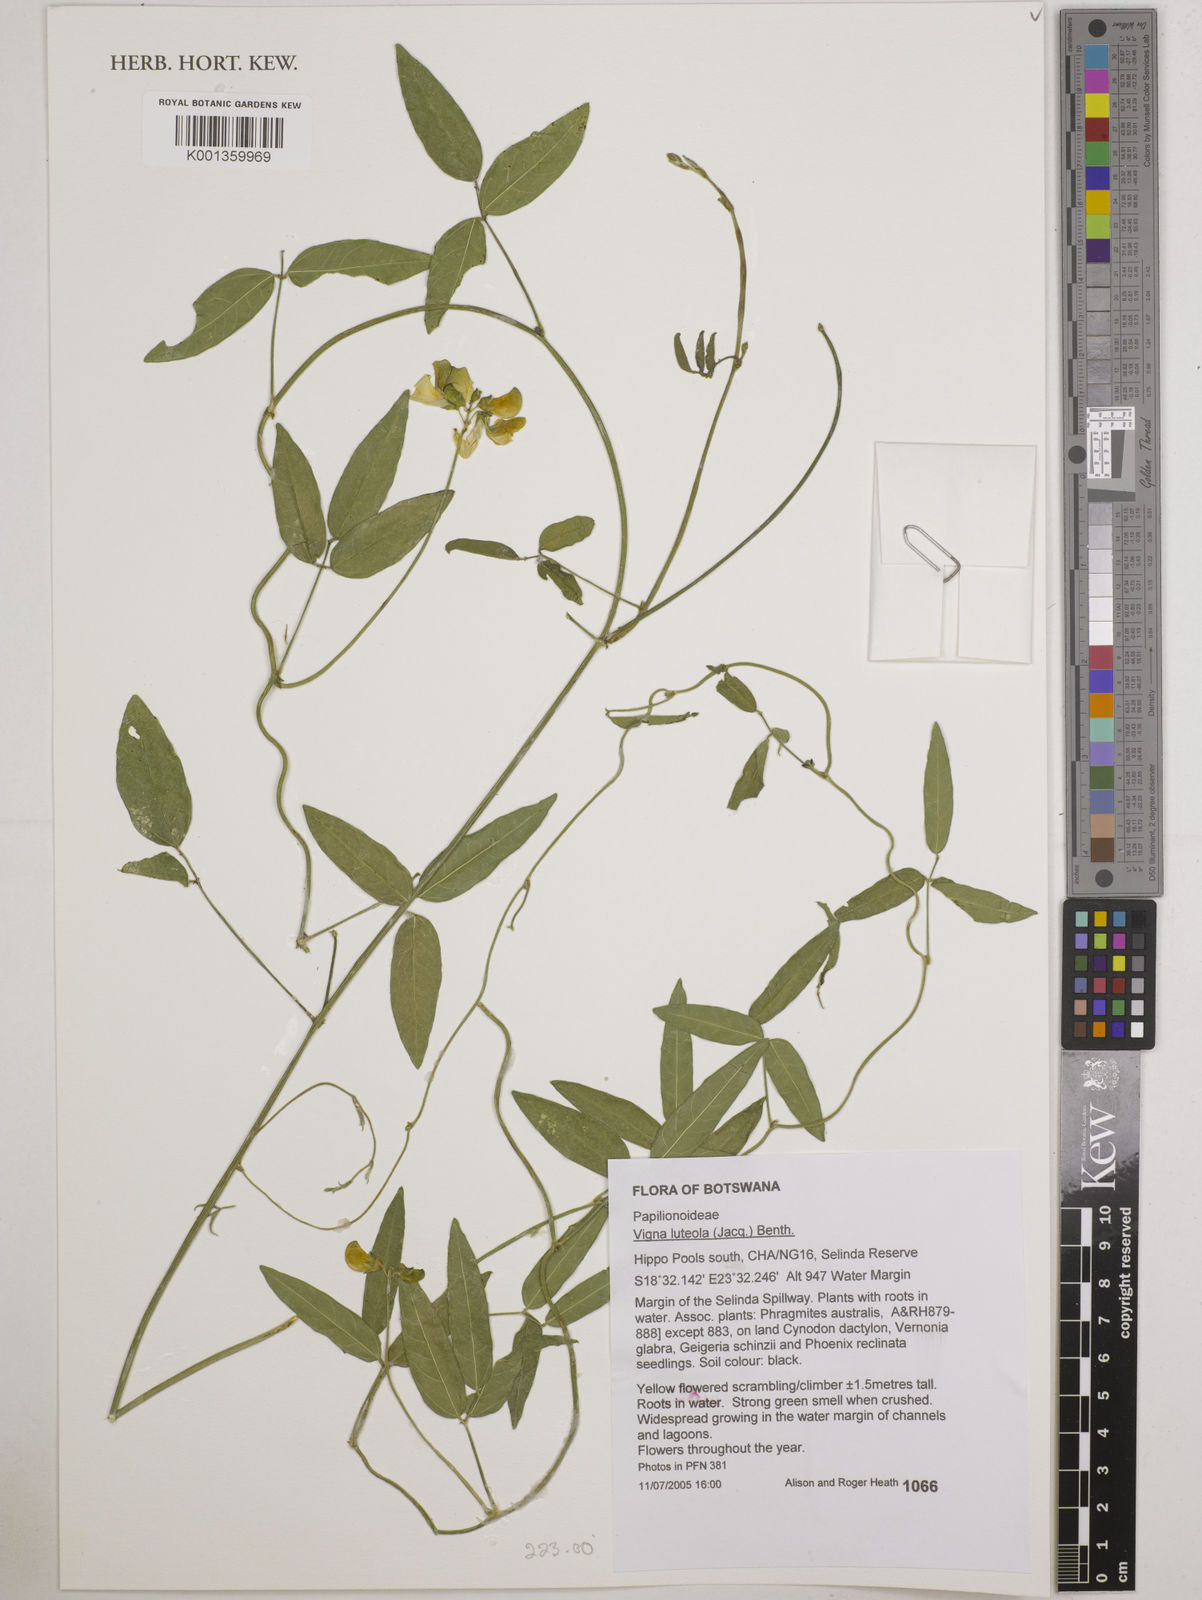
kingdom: Plantae
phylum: Tracheophyta
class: Magnoliopsida
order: Fabales
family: Fabaceae
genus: Vigna
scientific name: Vigna luteola
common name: Hairypod cowpea
